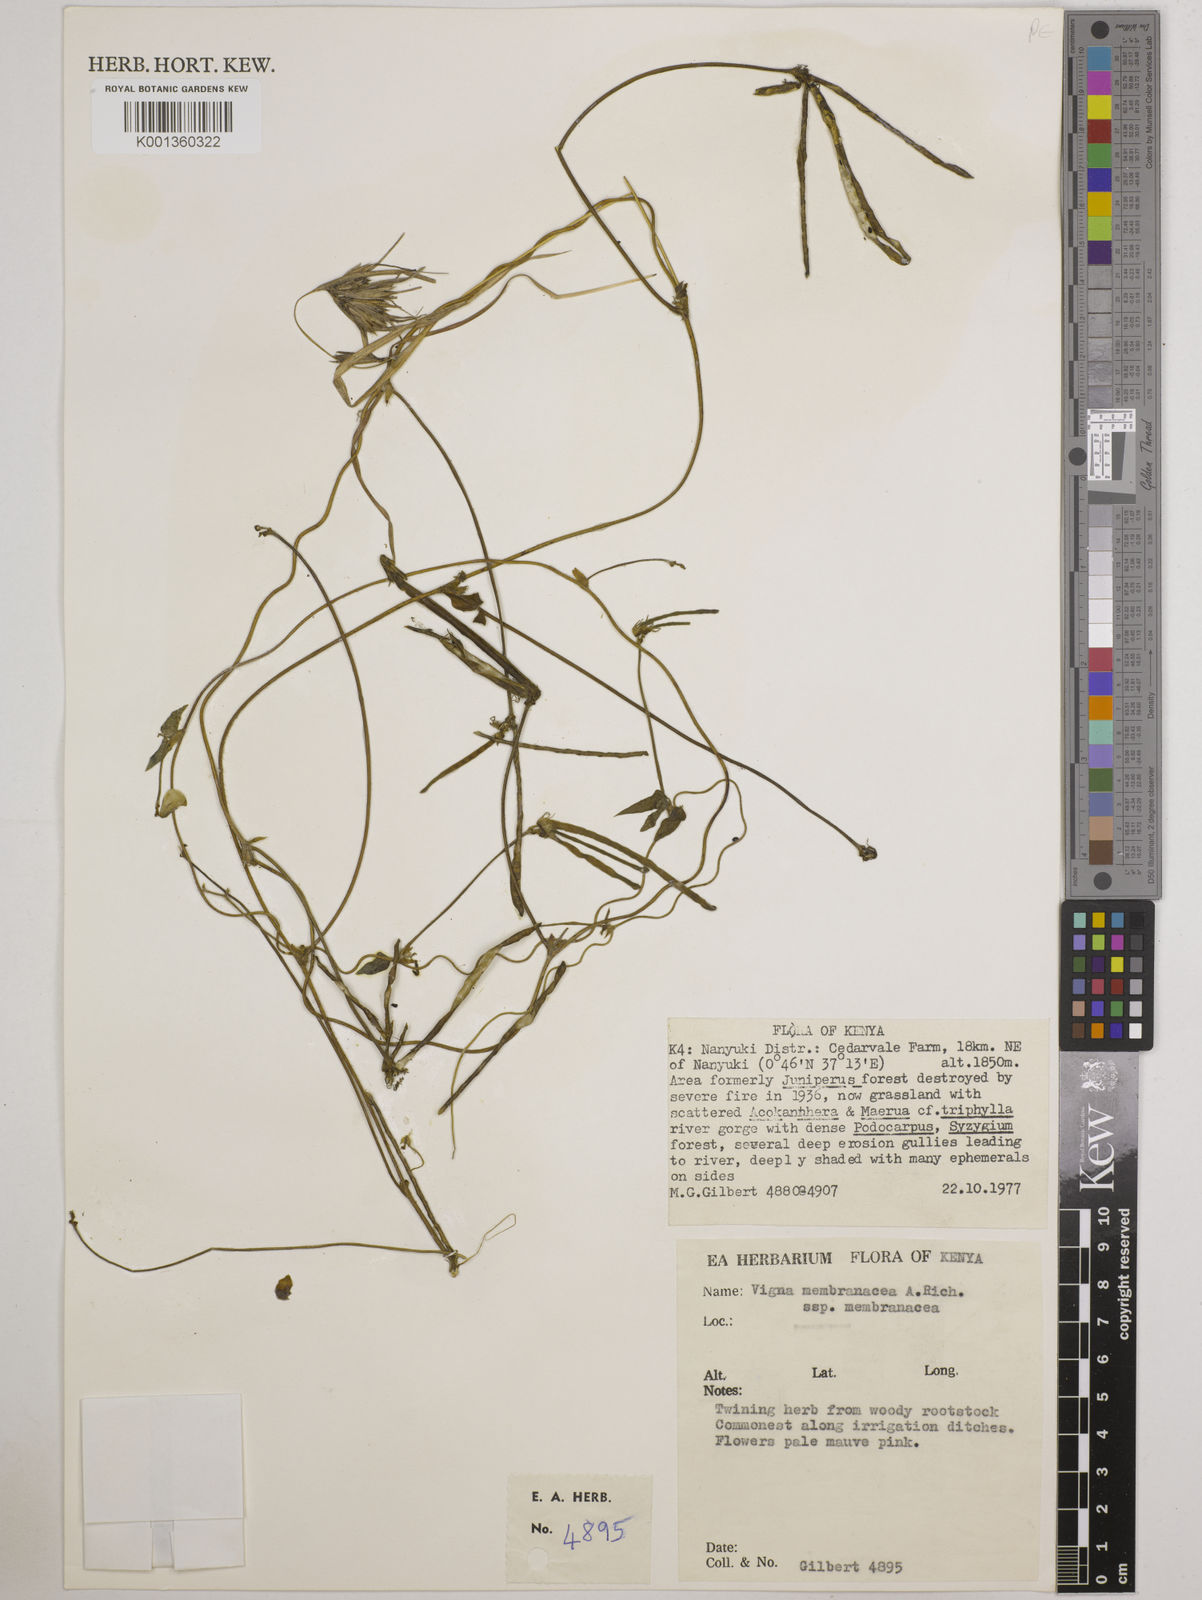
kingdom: Plantae
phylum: Tracheophyta
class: Magnoliopsida
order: Fabales
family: Fabaceae
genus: Vigna
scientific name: Vigna membranacea
